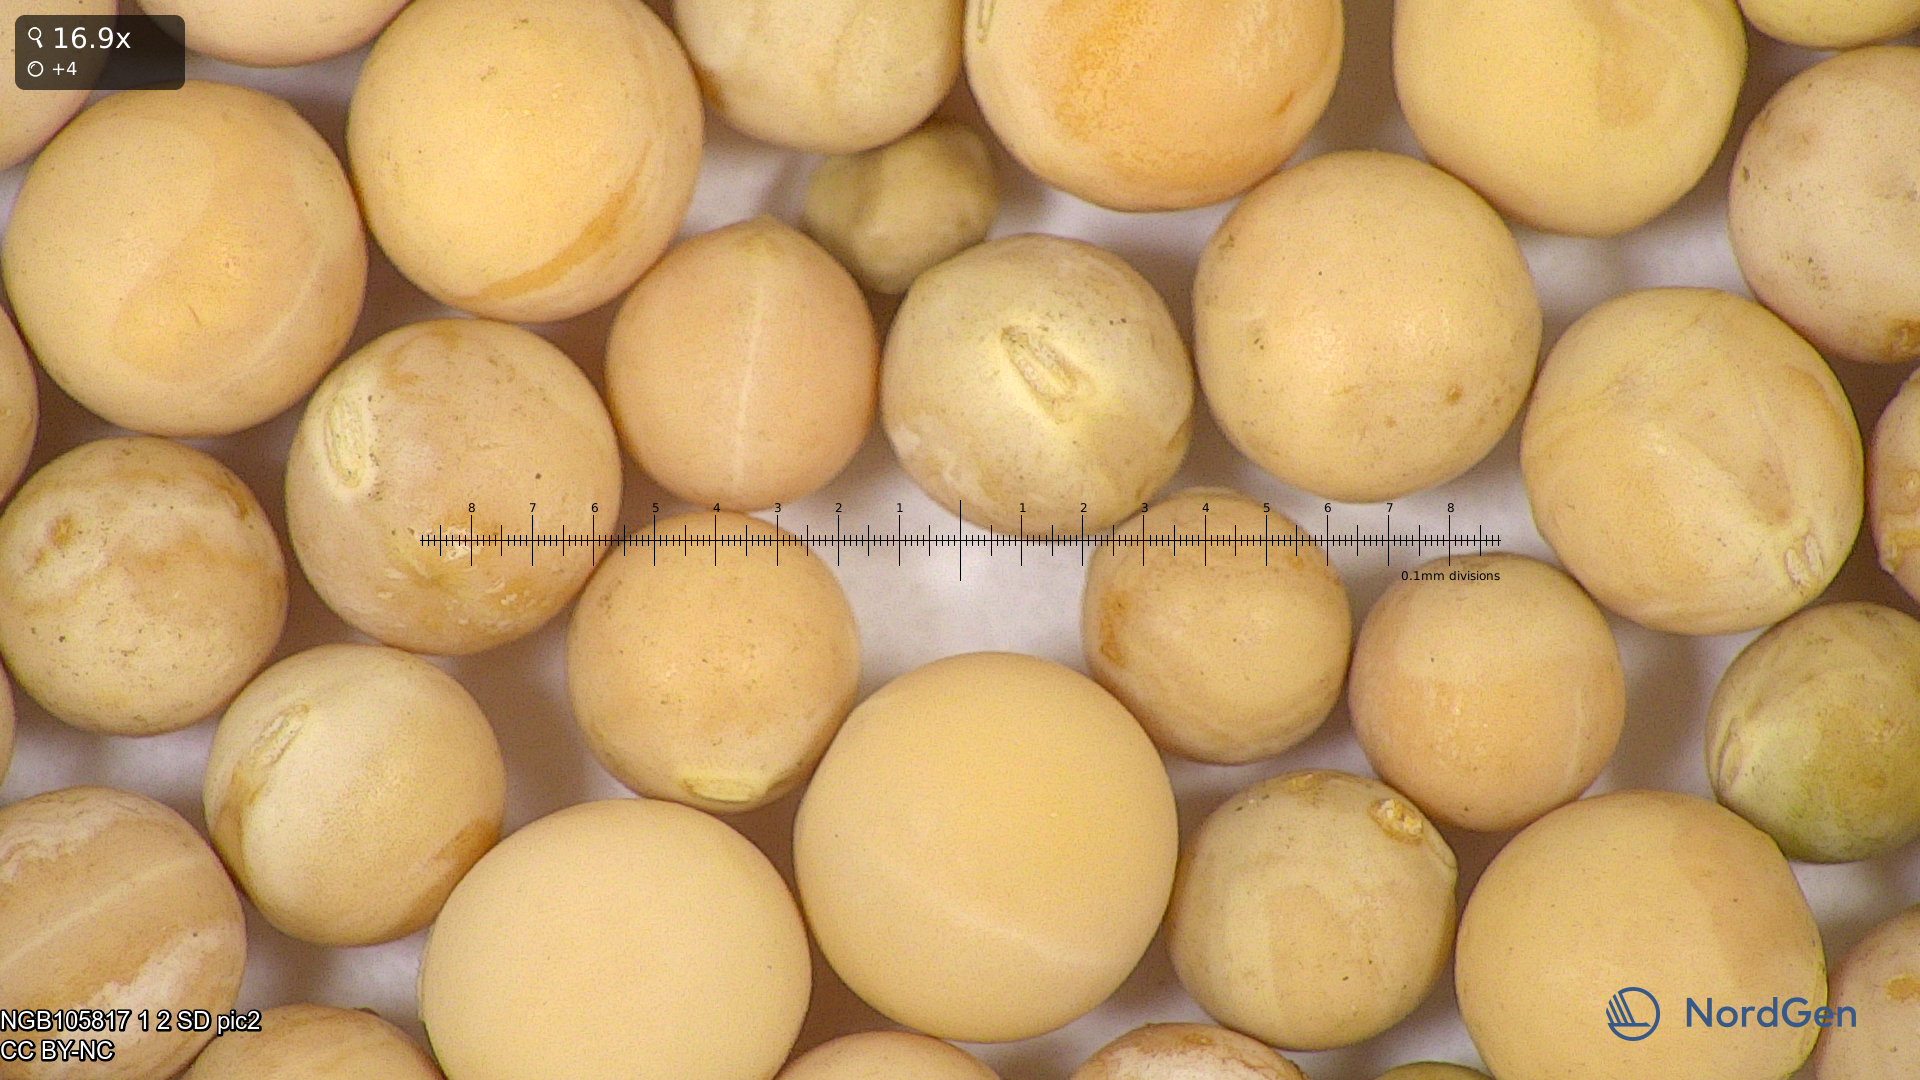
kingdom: Plantae
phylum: Tracheophyta
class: Magnoliopsida
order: Fabales
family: Fabaceae
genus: Lathyrus
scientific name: Lathyrus oleraceus
